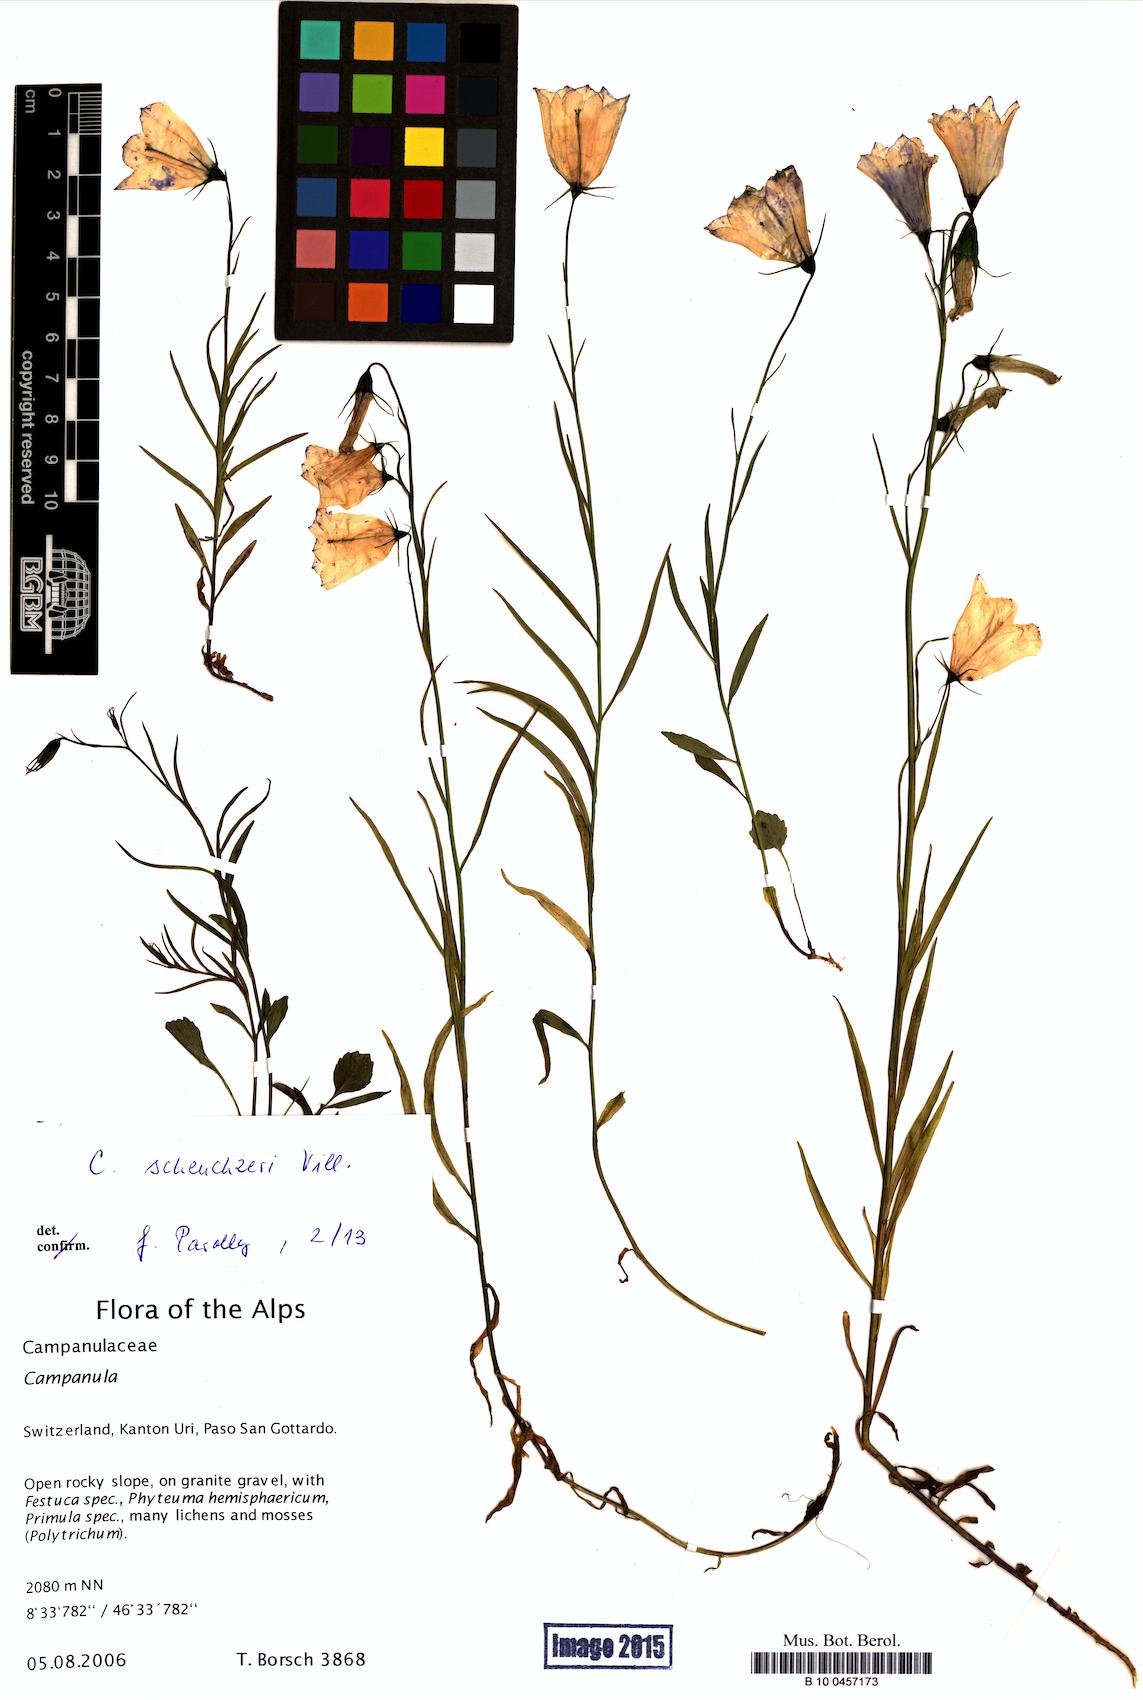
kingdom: Plantae
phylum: Tracheophyta
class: Magnoliopsida
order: Asterales
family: Campanulaceae
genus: Campanula
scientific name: Campanula scheuchzeri
